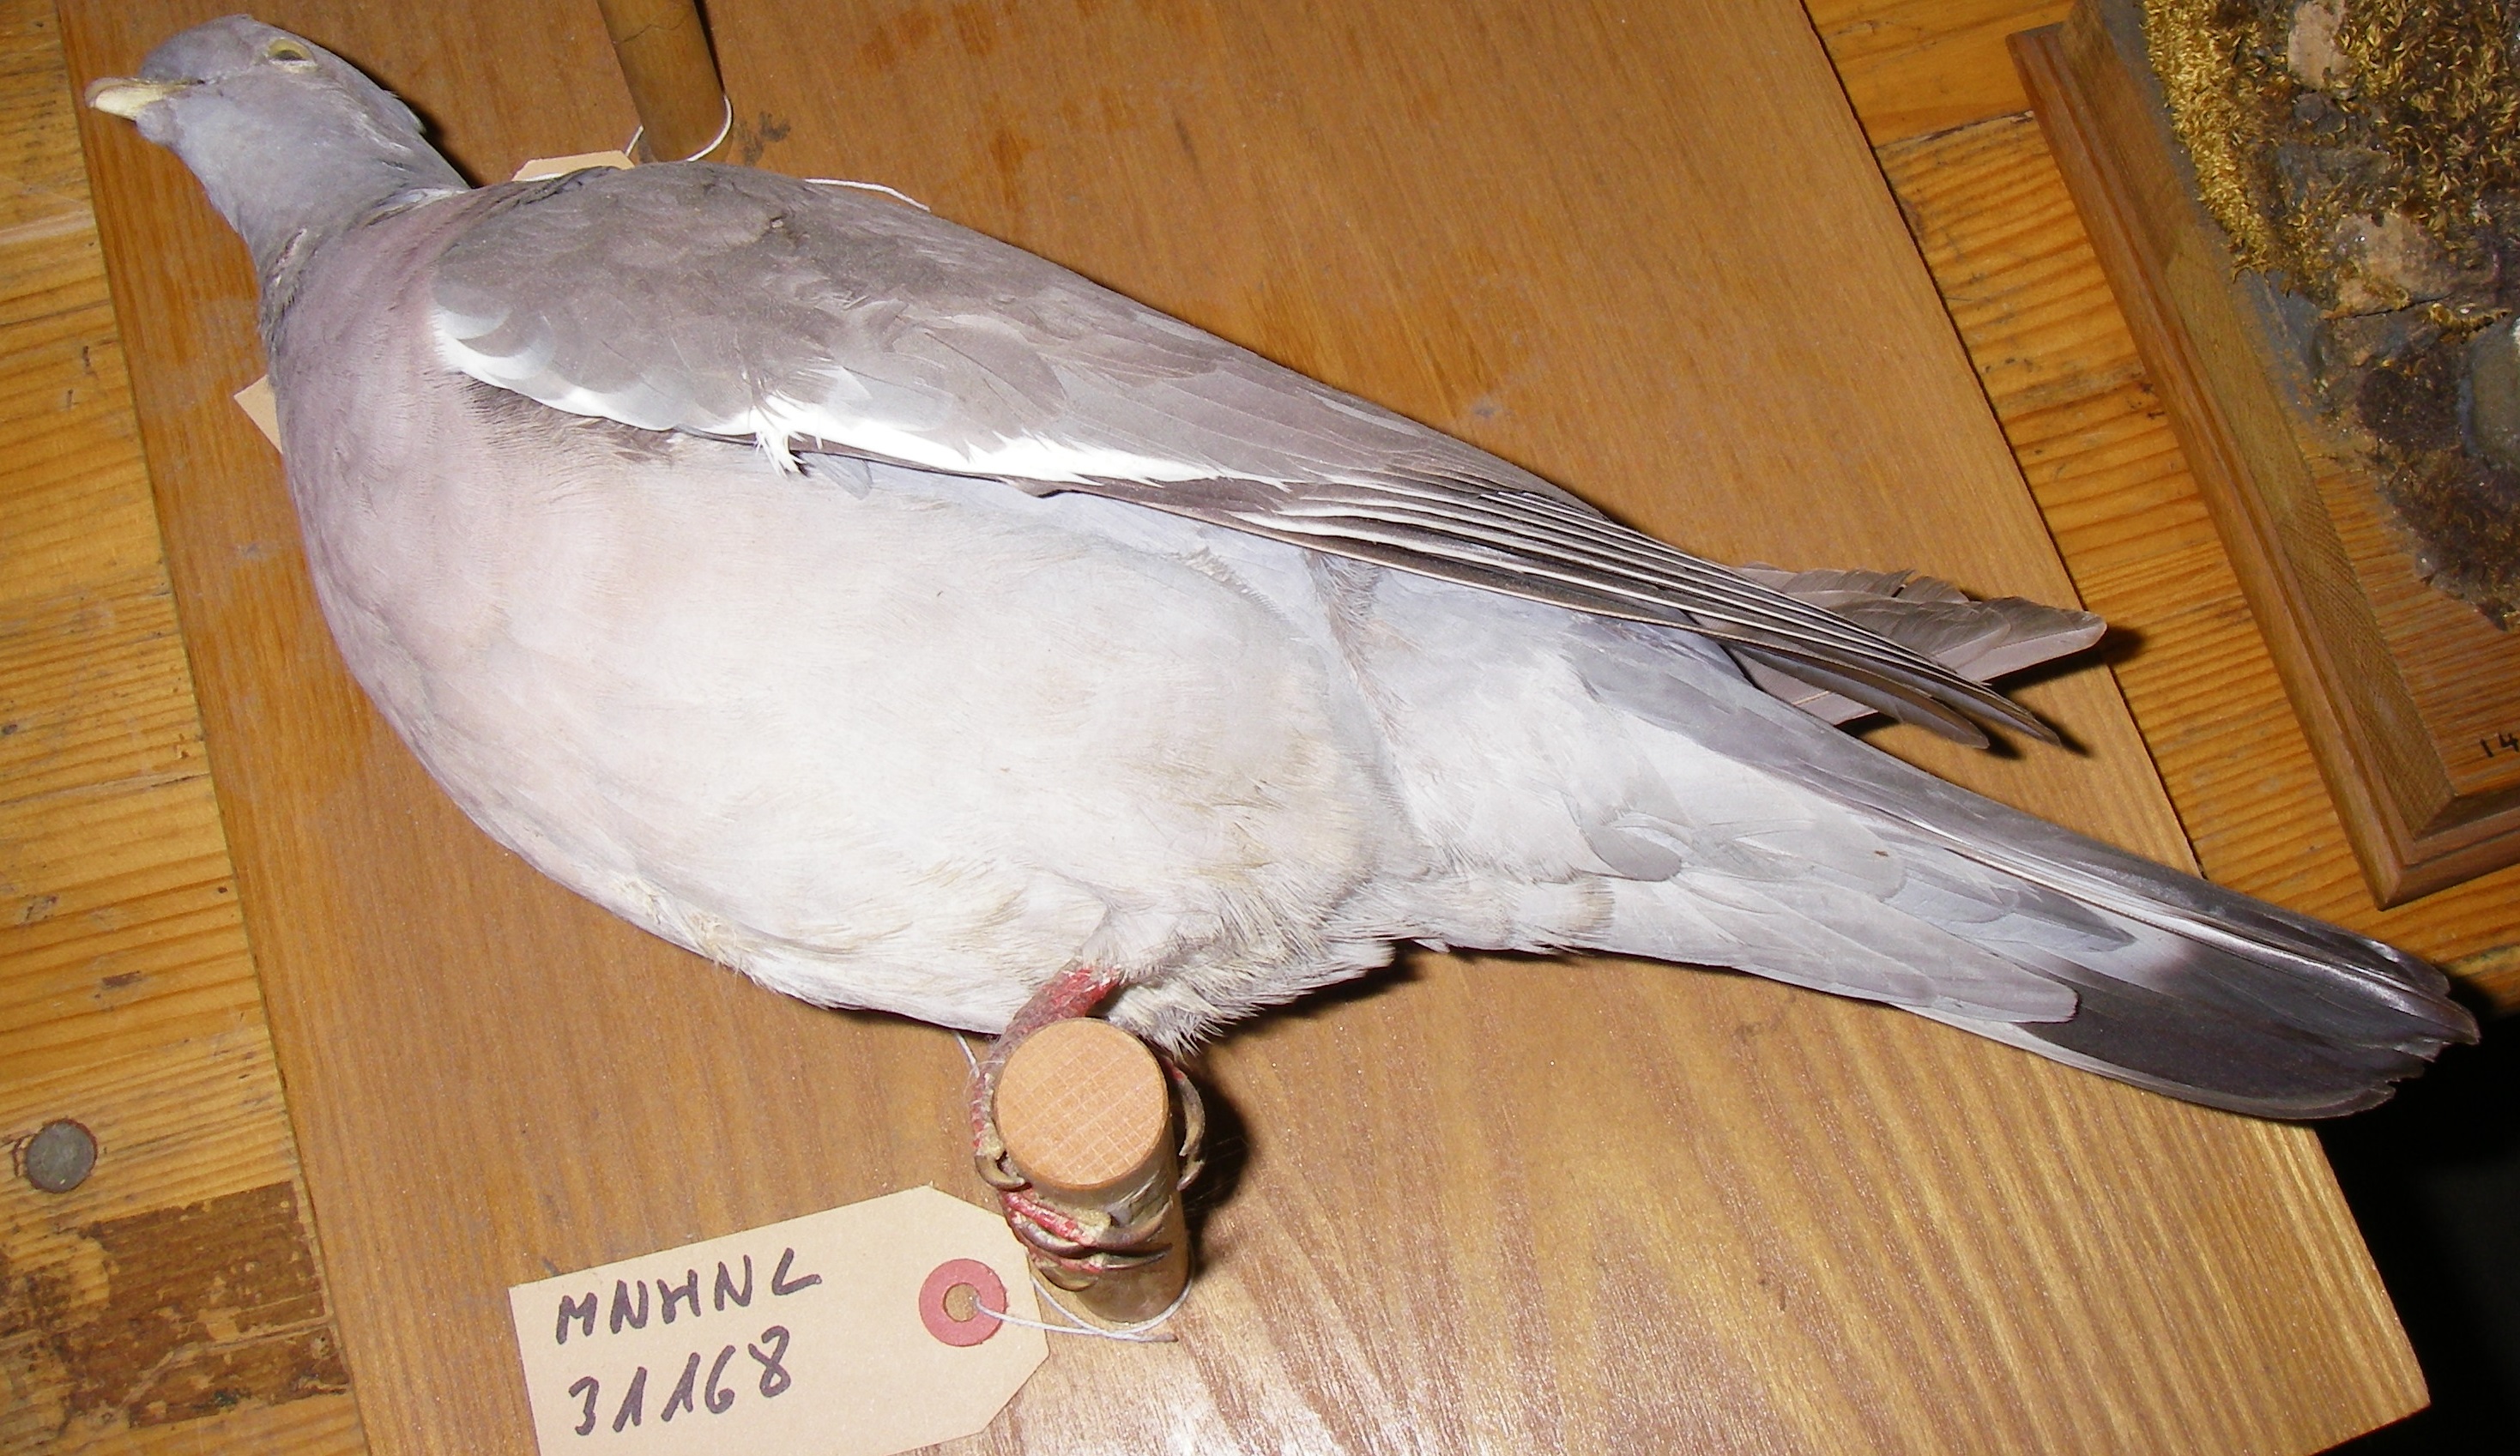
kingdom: Animalia
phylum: Chordata
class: Aves
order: Columbiformes
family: Columbidae
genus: Columba
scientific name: Columba palumbus
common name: Common wood pigeon
